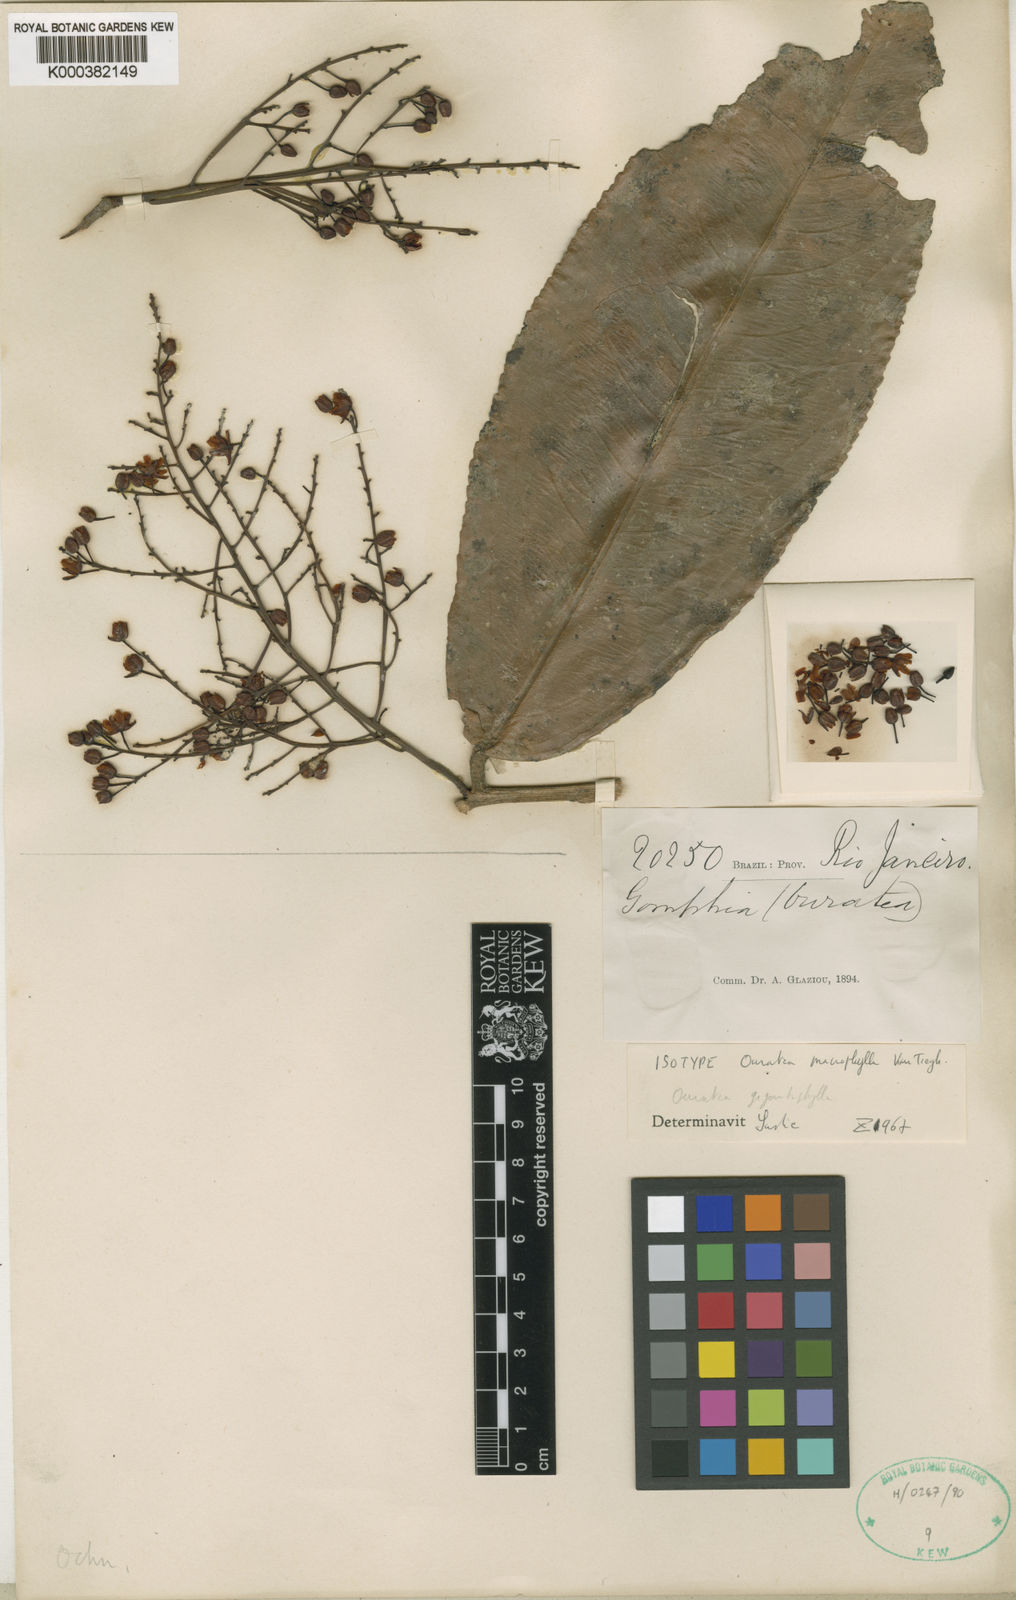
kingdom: Plantae
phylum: Tracheophyta
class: Magnoliopsida
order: Malpighiales
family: Ochnaceae
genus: Ouratea
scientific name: Ouratea gigantophylla
